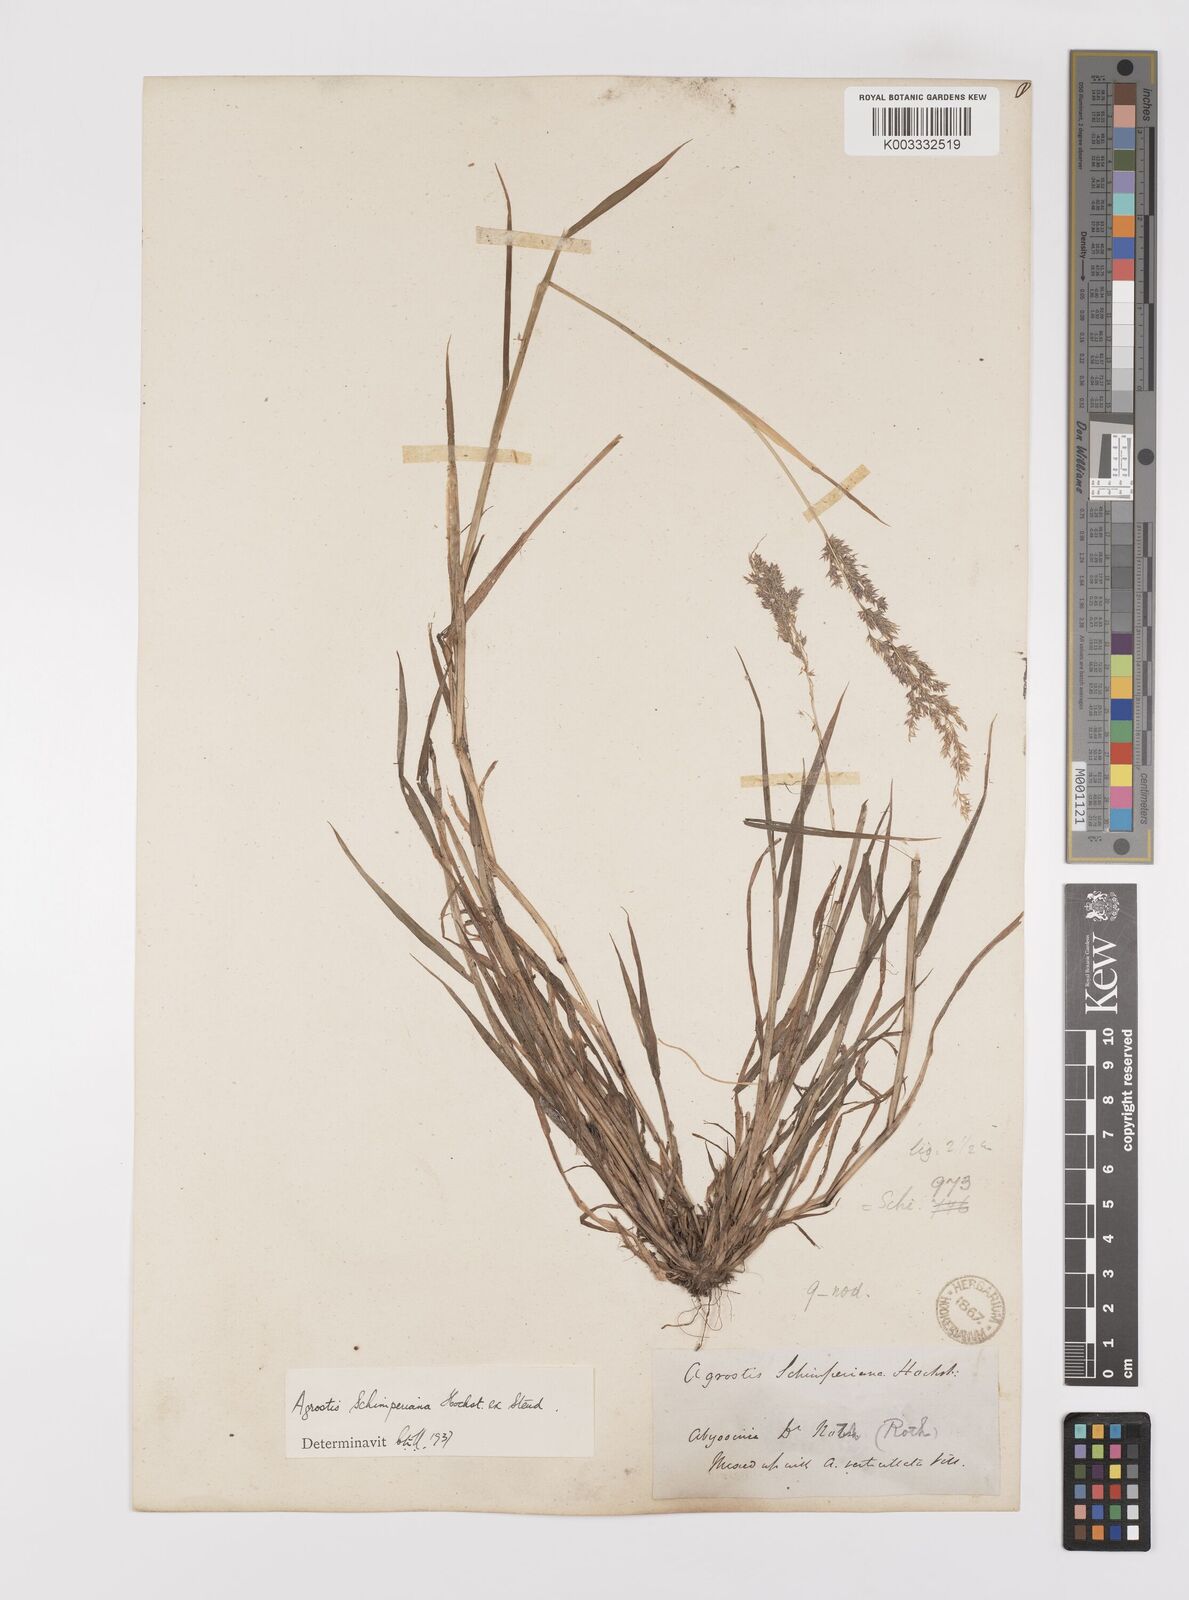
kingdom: Plantae
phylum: Tracheophyta
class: Liliopsida
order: Poales
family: Poaceae
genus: Polypogon
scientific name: Polypogon schimperianus
